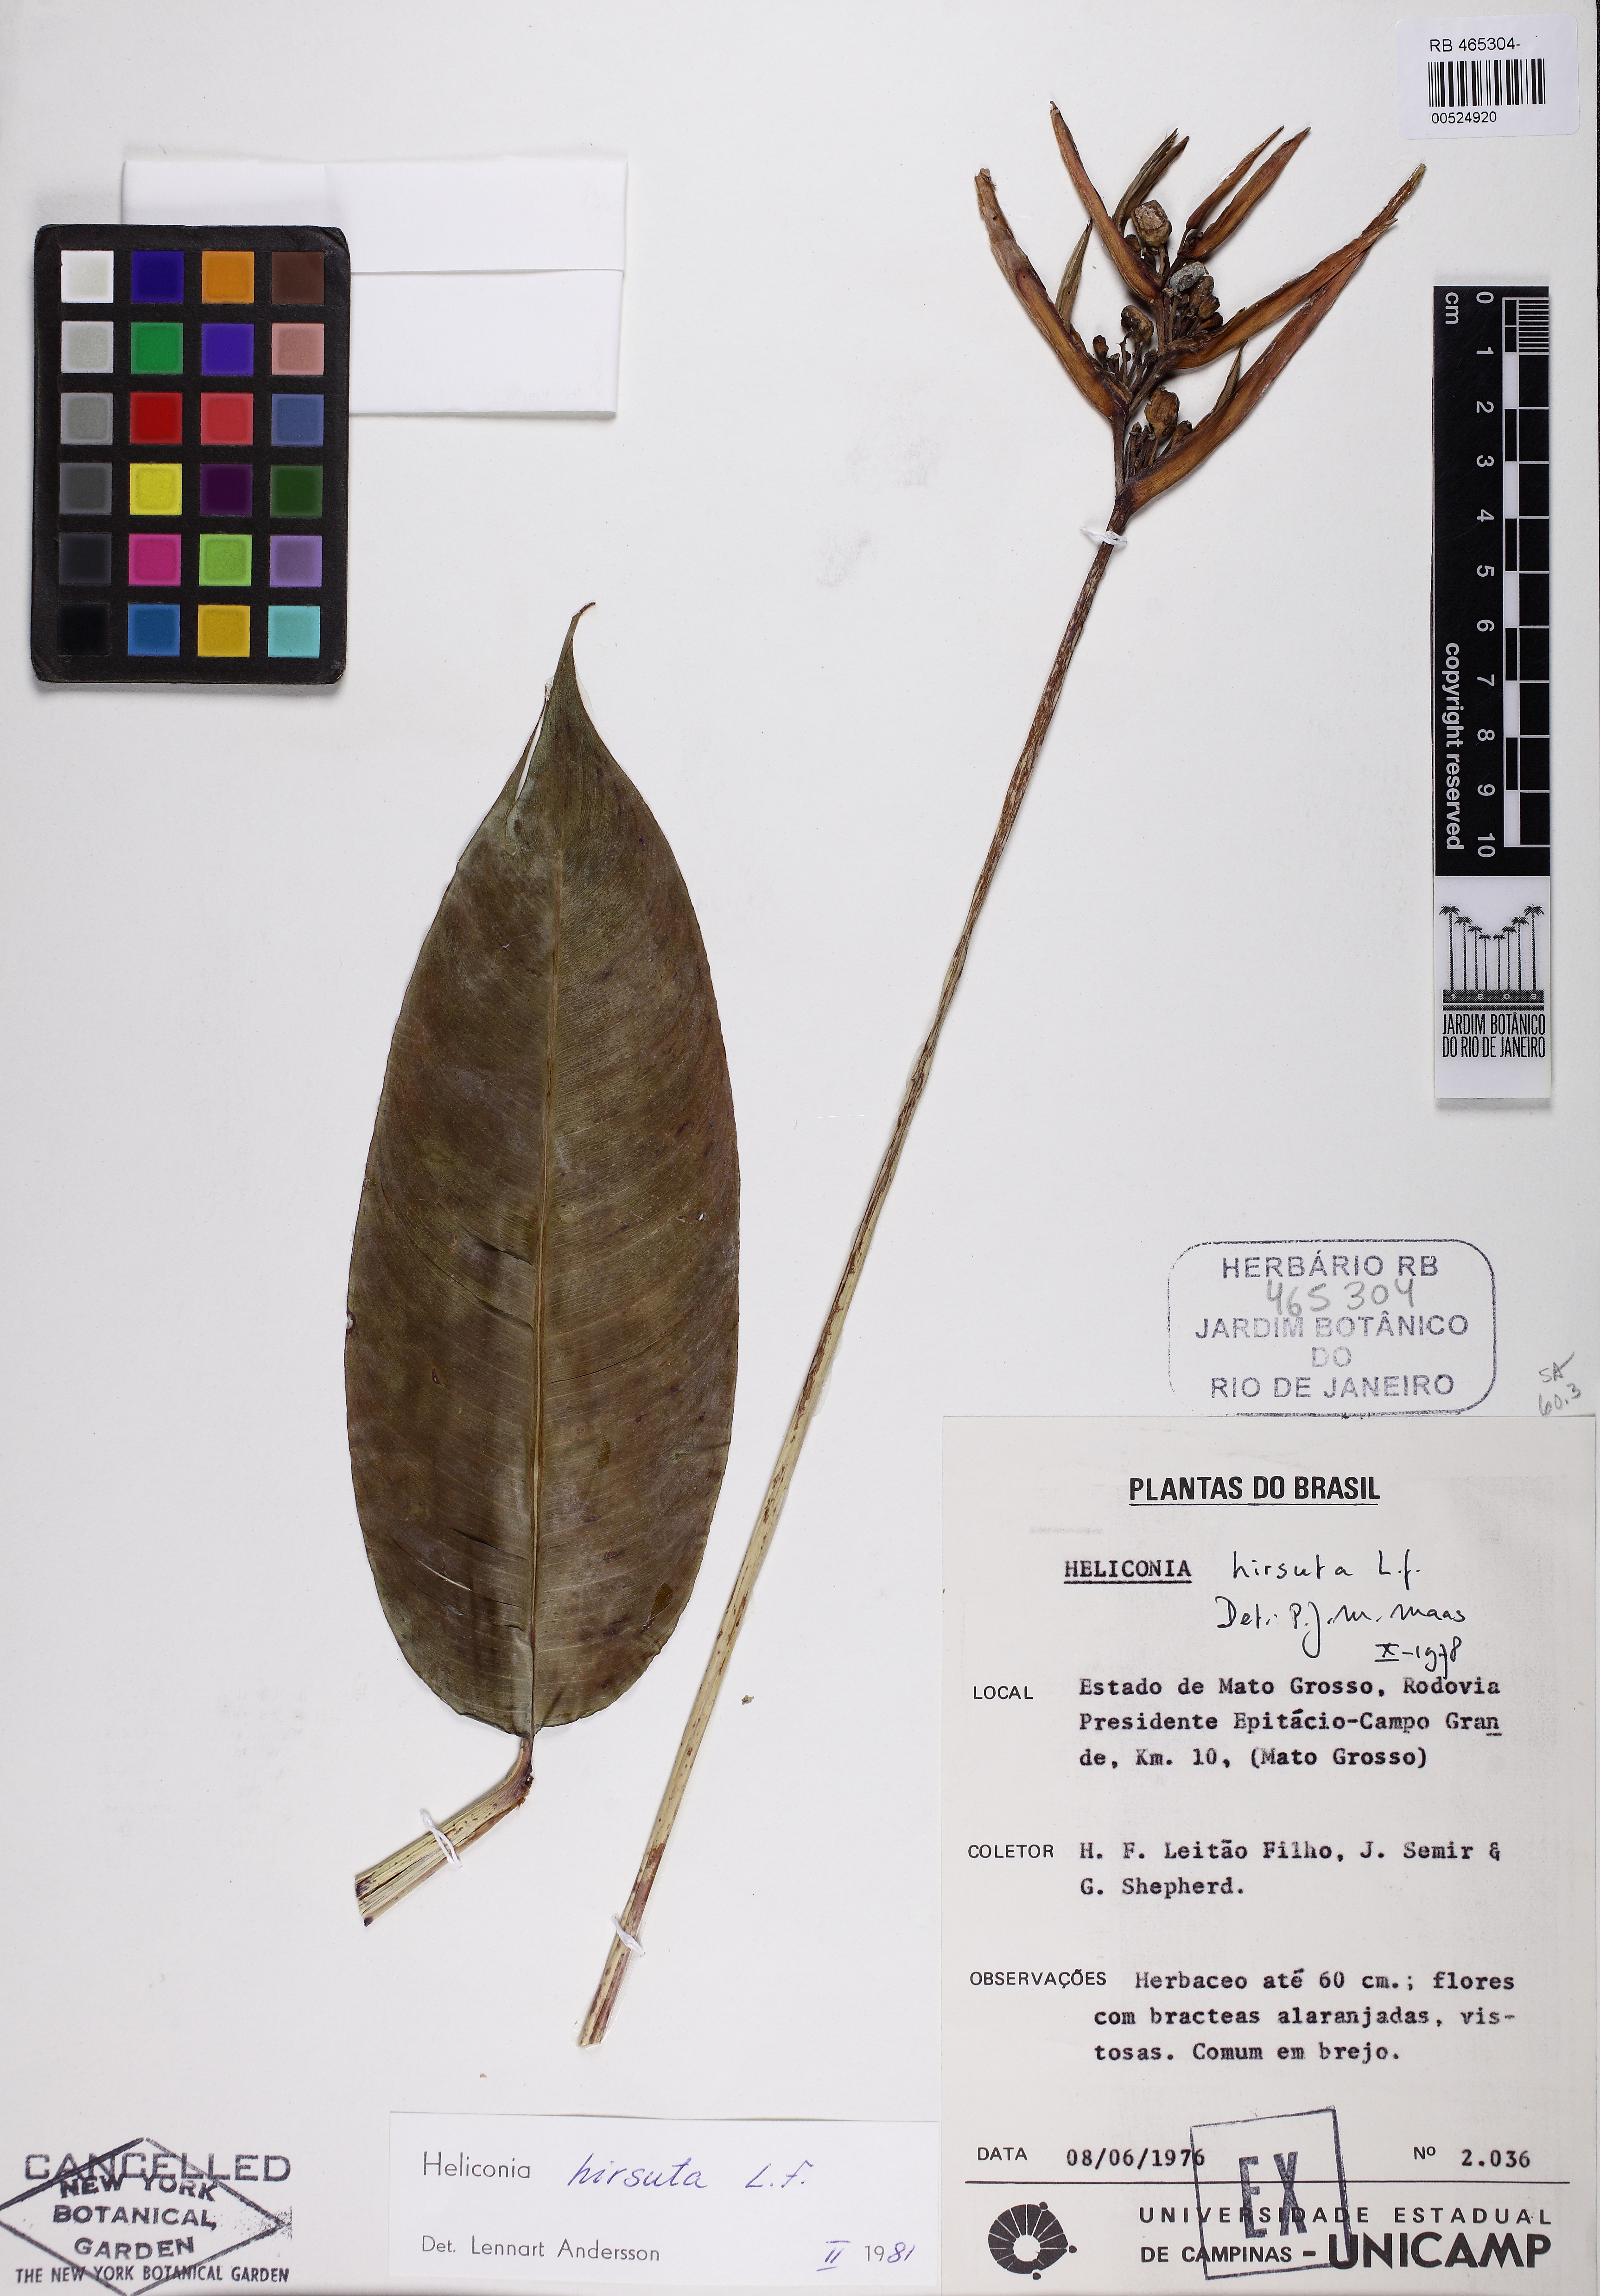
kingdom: Plantae
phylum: Tracheophyta
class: Liliopsida
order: Zingiberales
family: Heliconiaceae
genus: Heliconia
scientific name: Heliconia hirsuta
